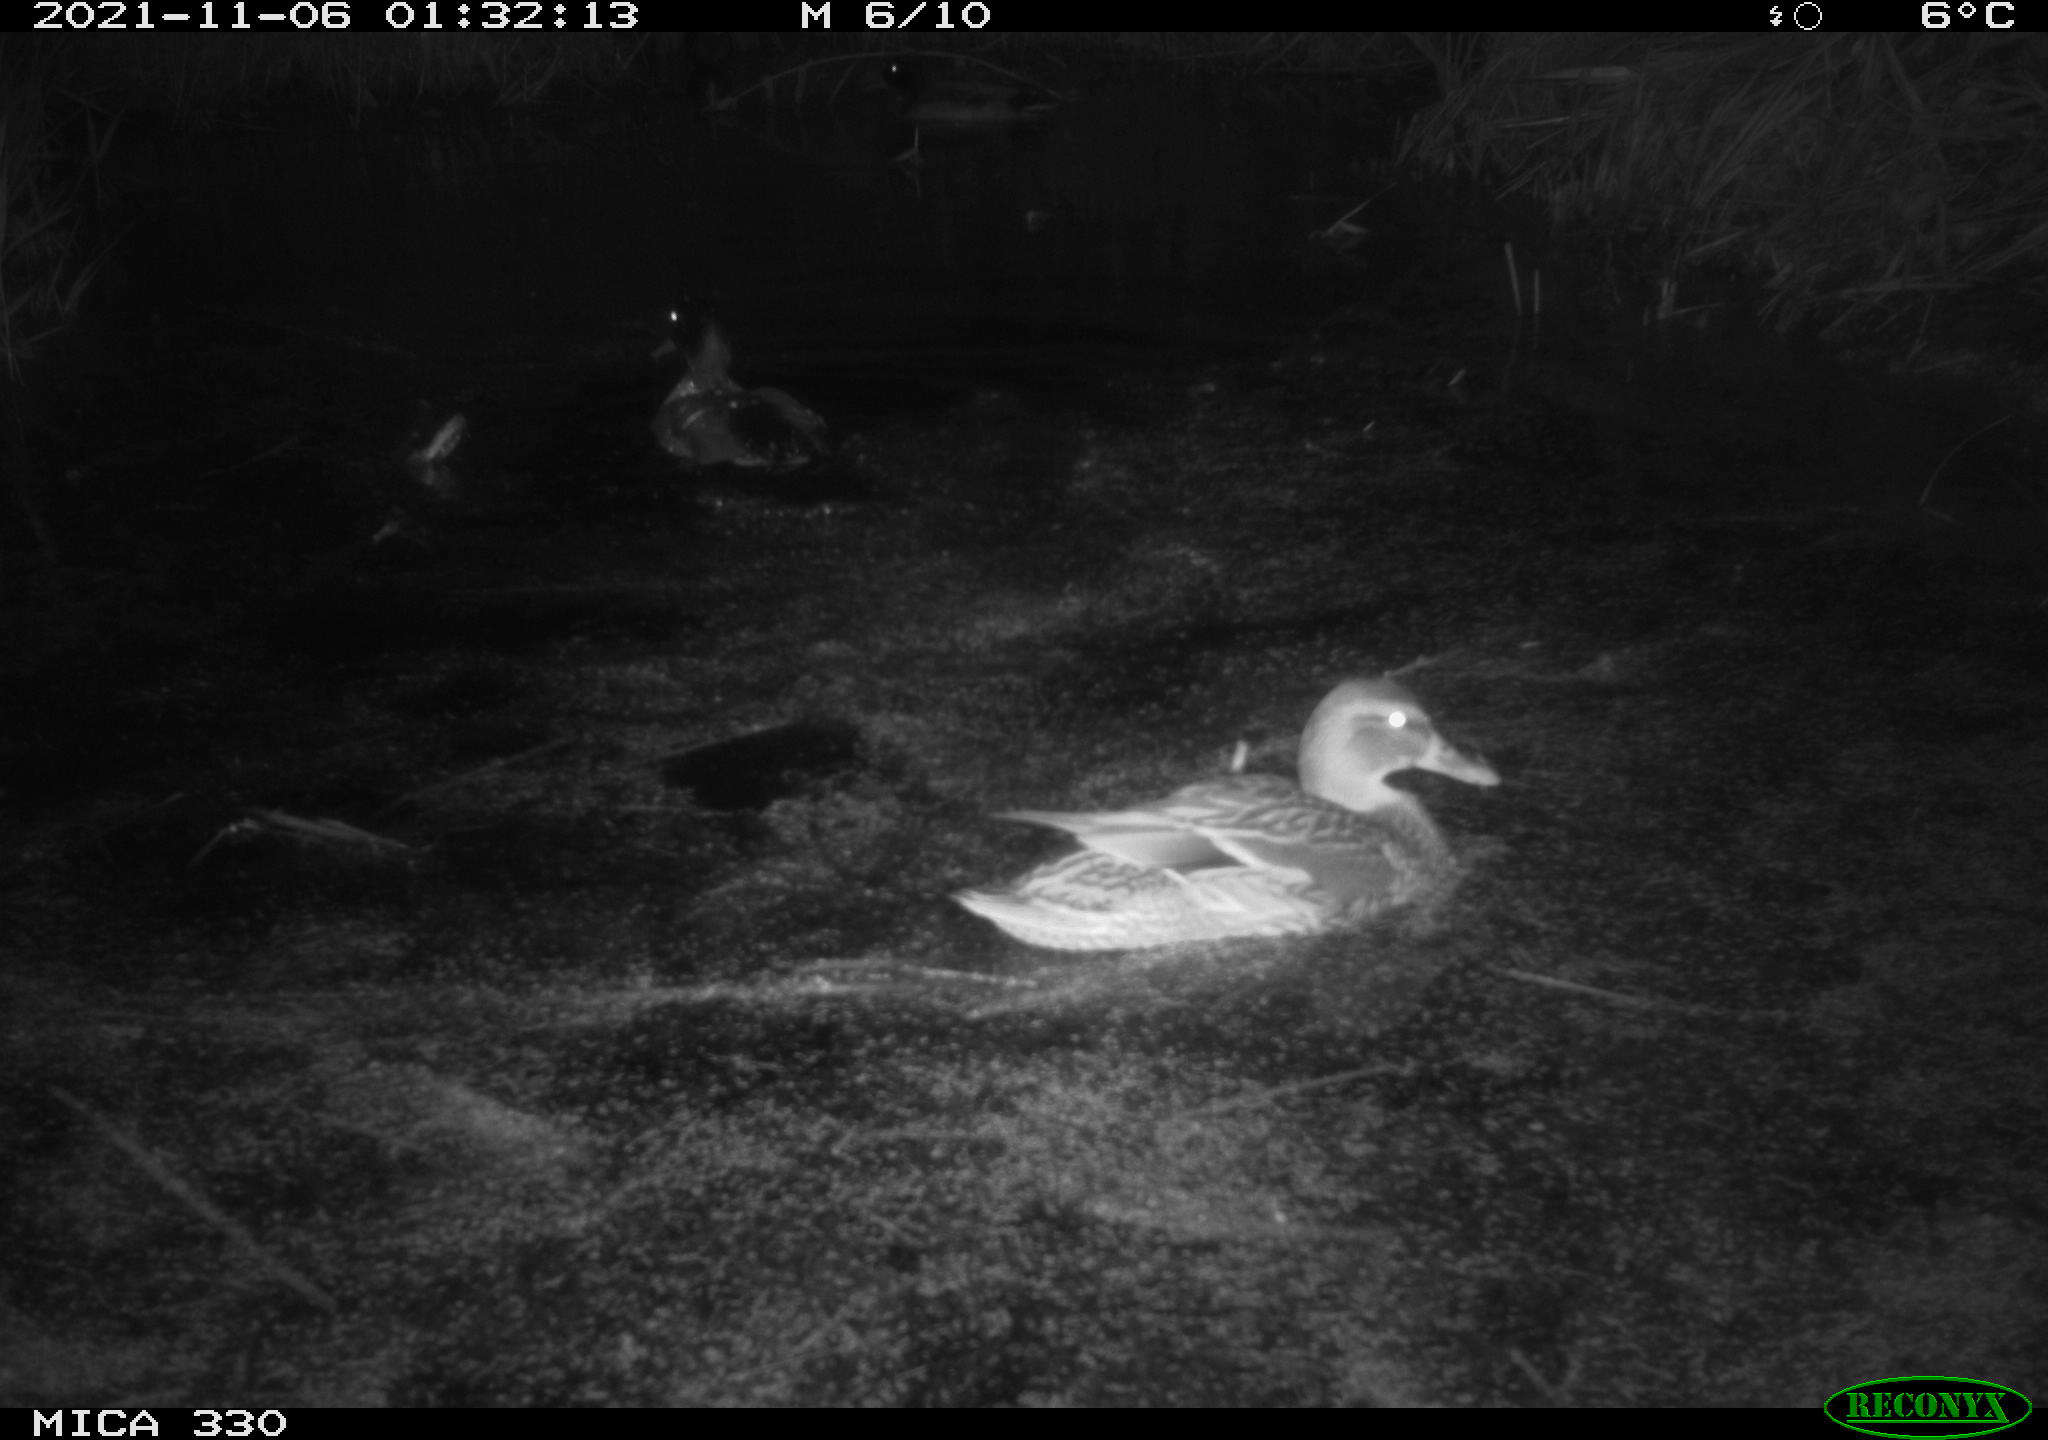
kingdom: Animalia
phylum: Chordata
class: Aves
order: Anseriformes
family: Anatidae
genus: Anas
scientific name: Anas platyrhynchos
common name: Mallard
